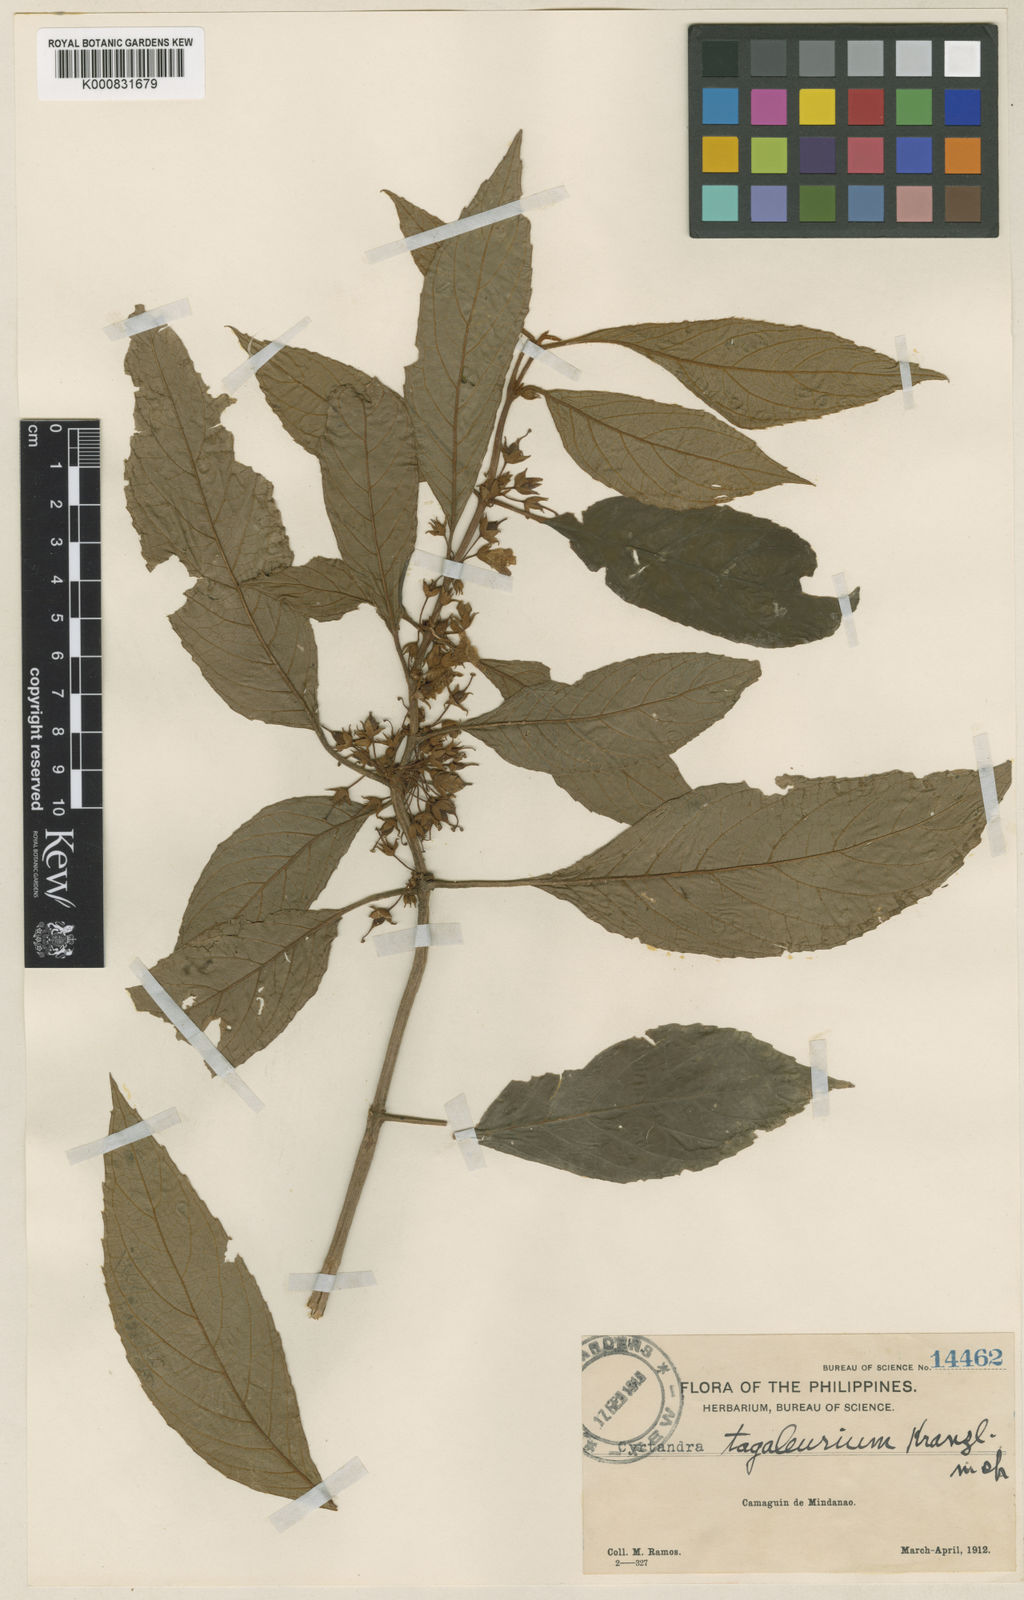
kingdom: Plantae
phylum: Tracheophyta
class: Magnoliopsida
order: Lamiales
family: Gesneriaceae
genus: Cyrtandra
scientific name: Cyrtandra tagaleurium
